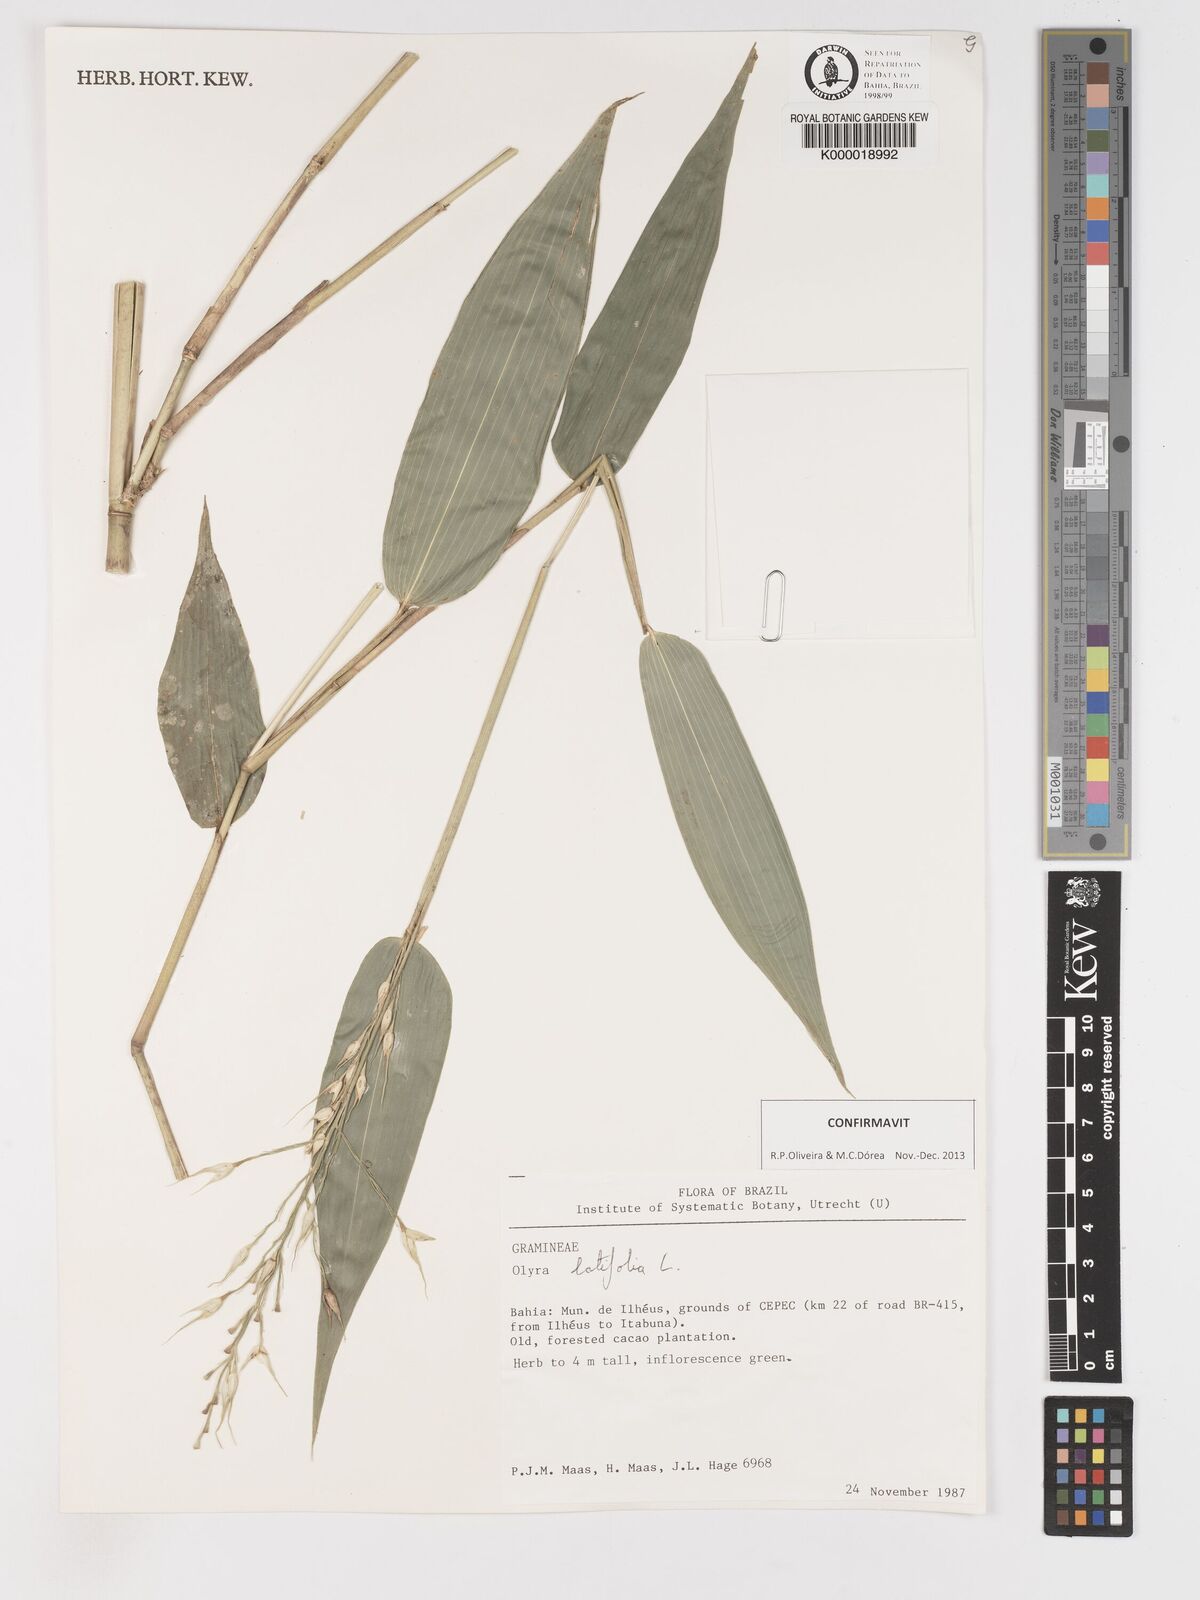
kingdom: Plantae
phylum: Tracheophyta
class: Liliopsida
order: Poales
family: Poaceae
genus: Olyra
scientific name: Olyra latifolia
